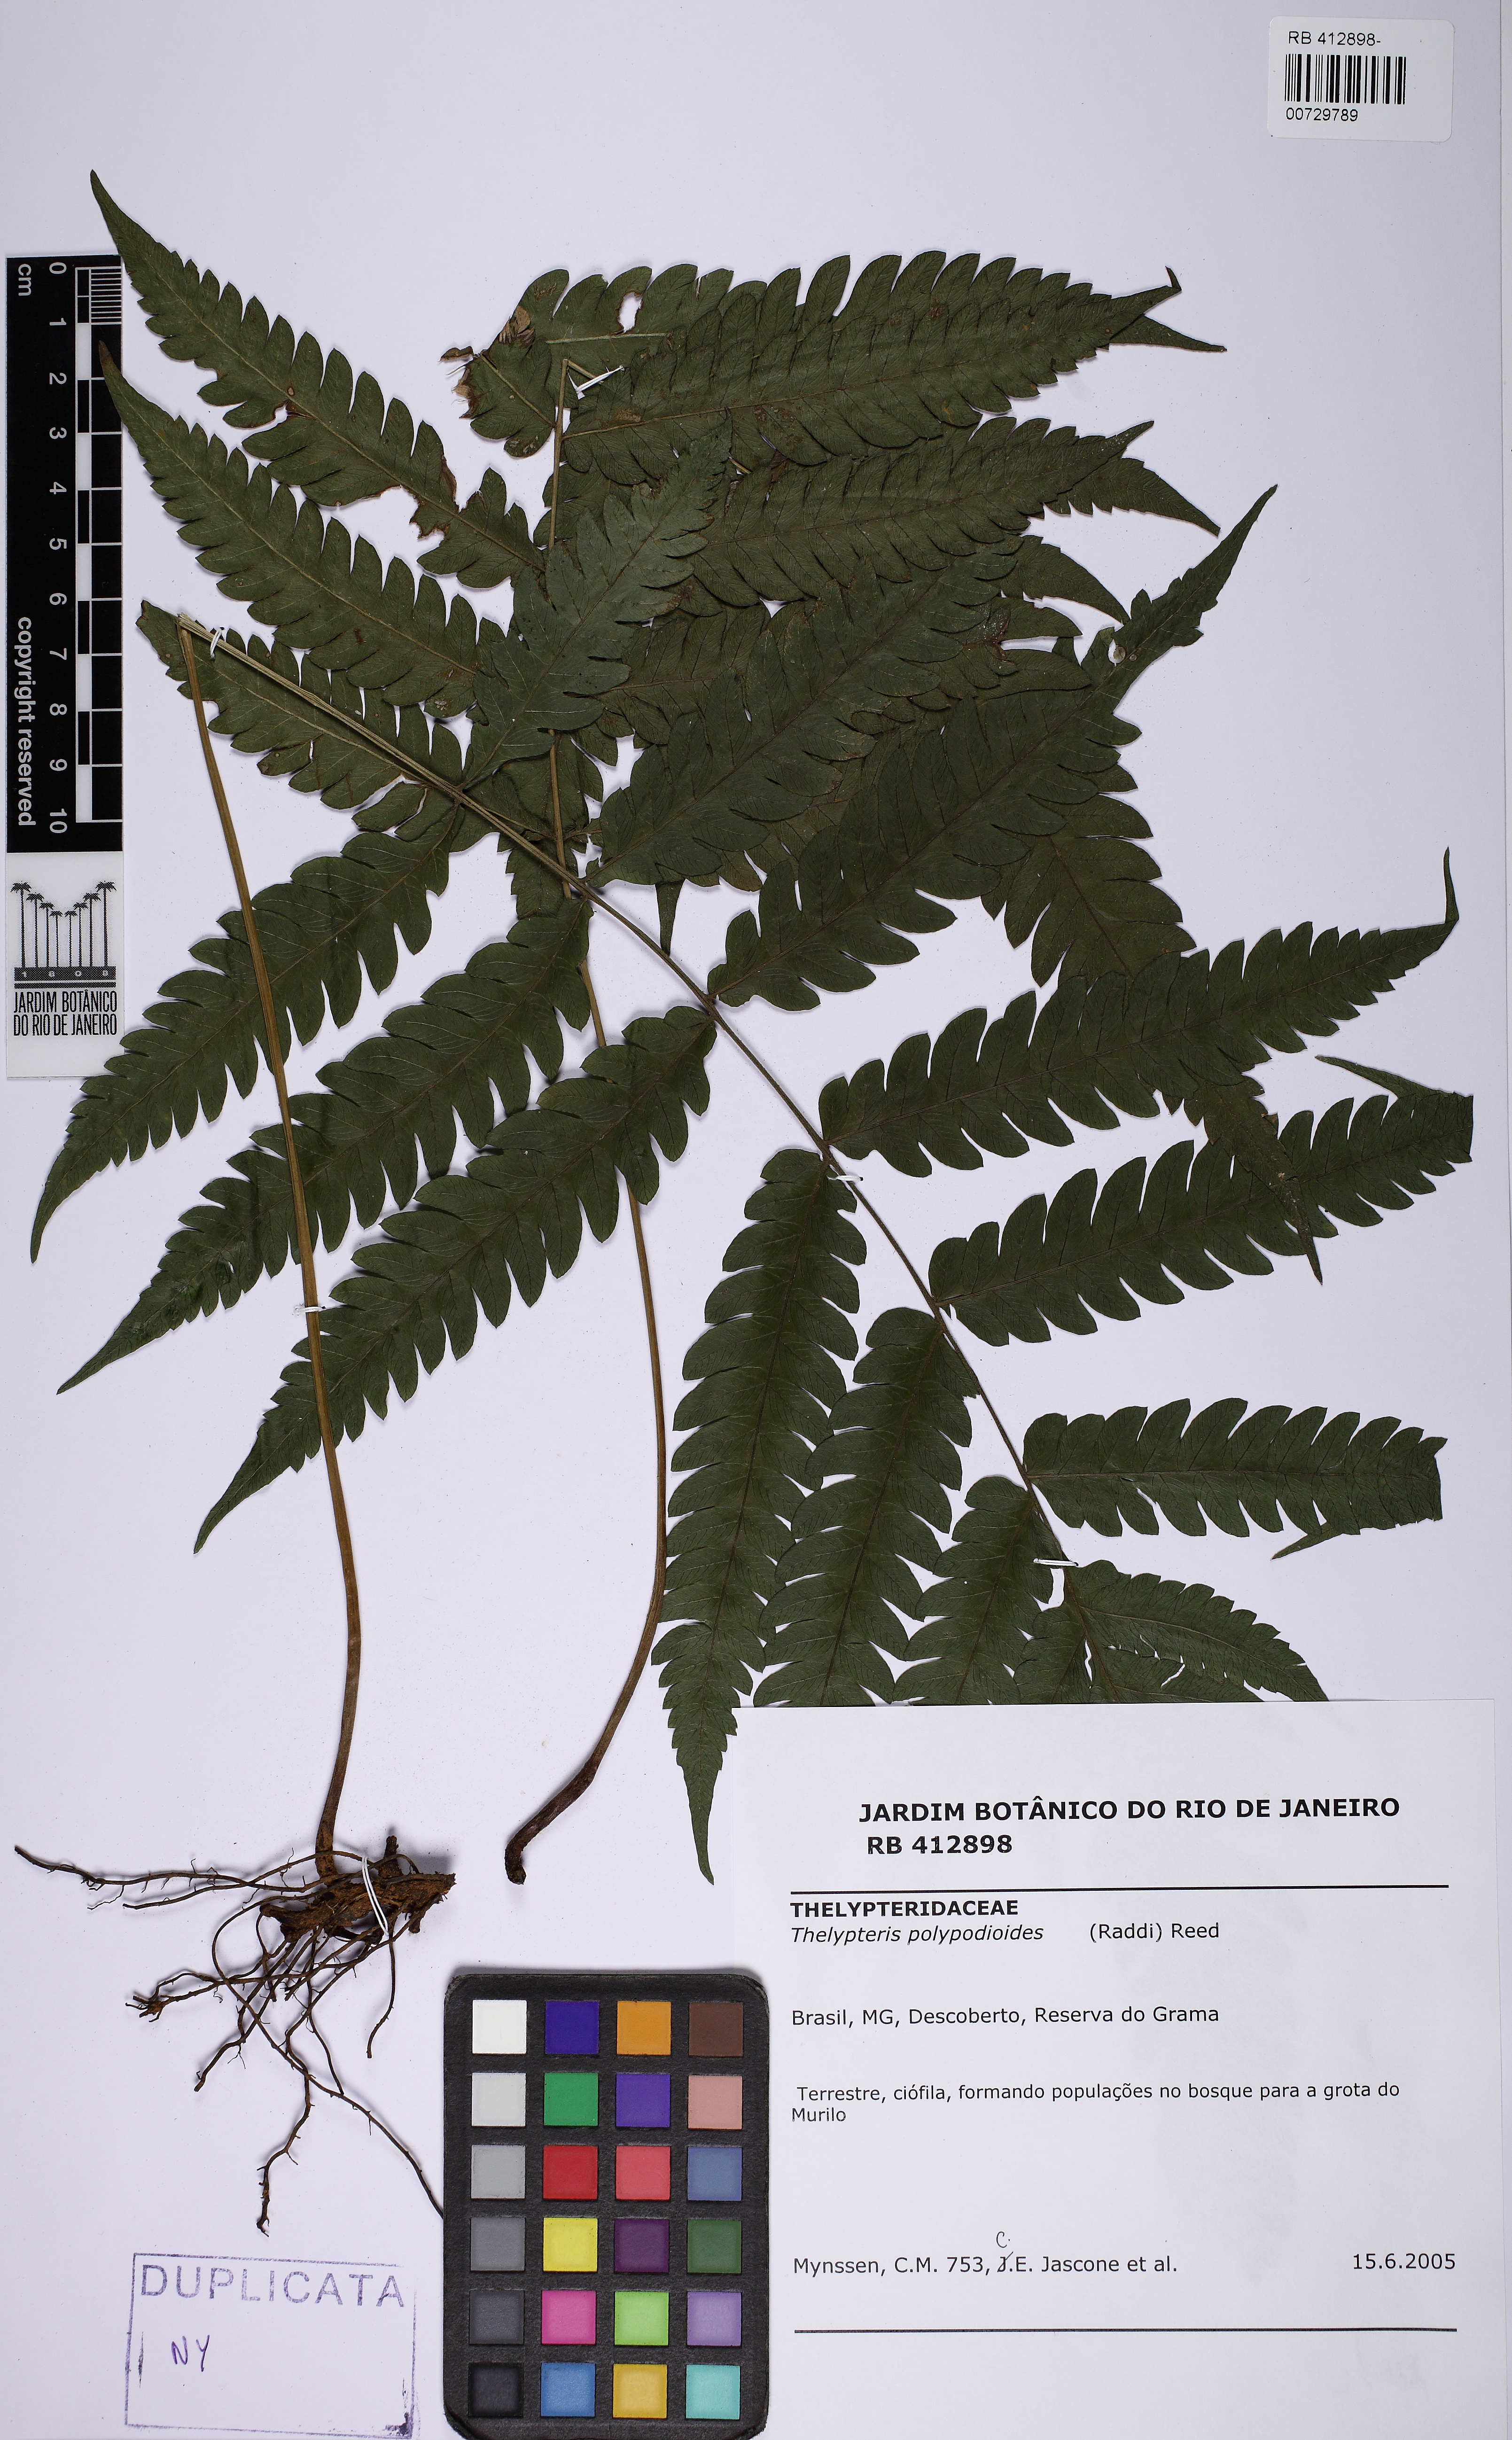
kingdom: Plantae
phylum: Tracheophyta
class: Polypodiopsida
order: Polypodiales
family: Thelypteridaceae
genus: Steiropteris
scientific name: Steiropteris polypodioides
